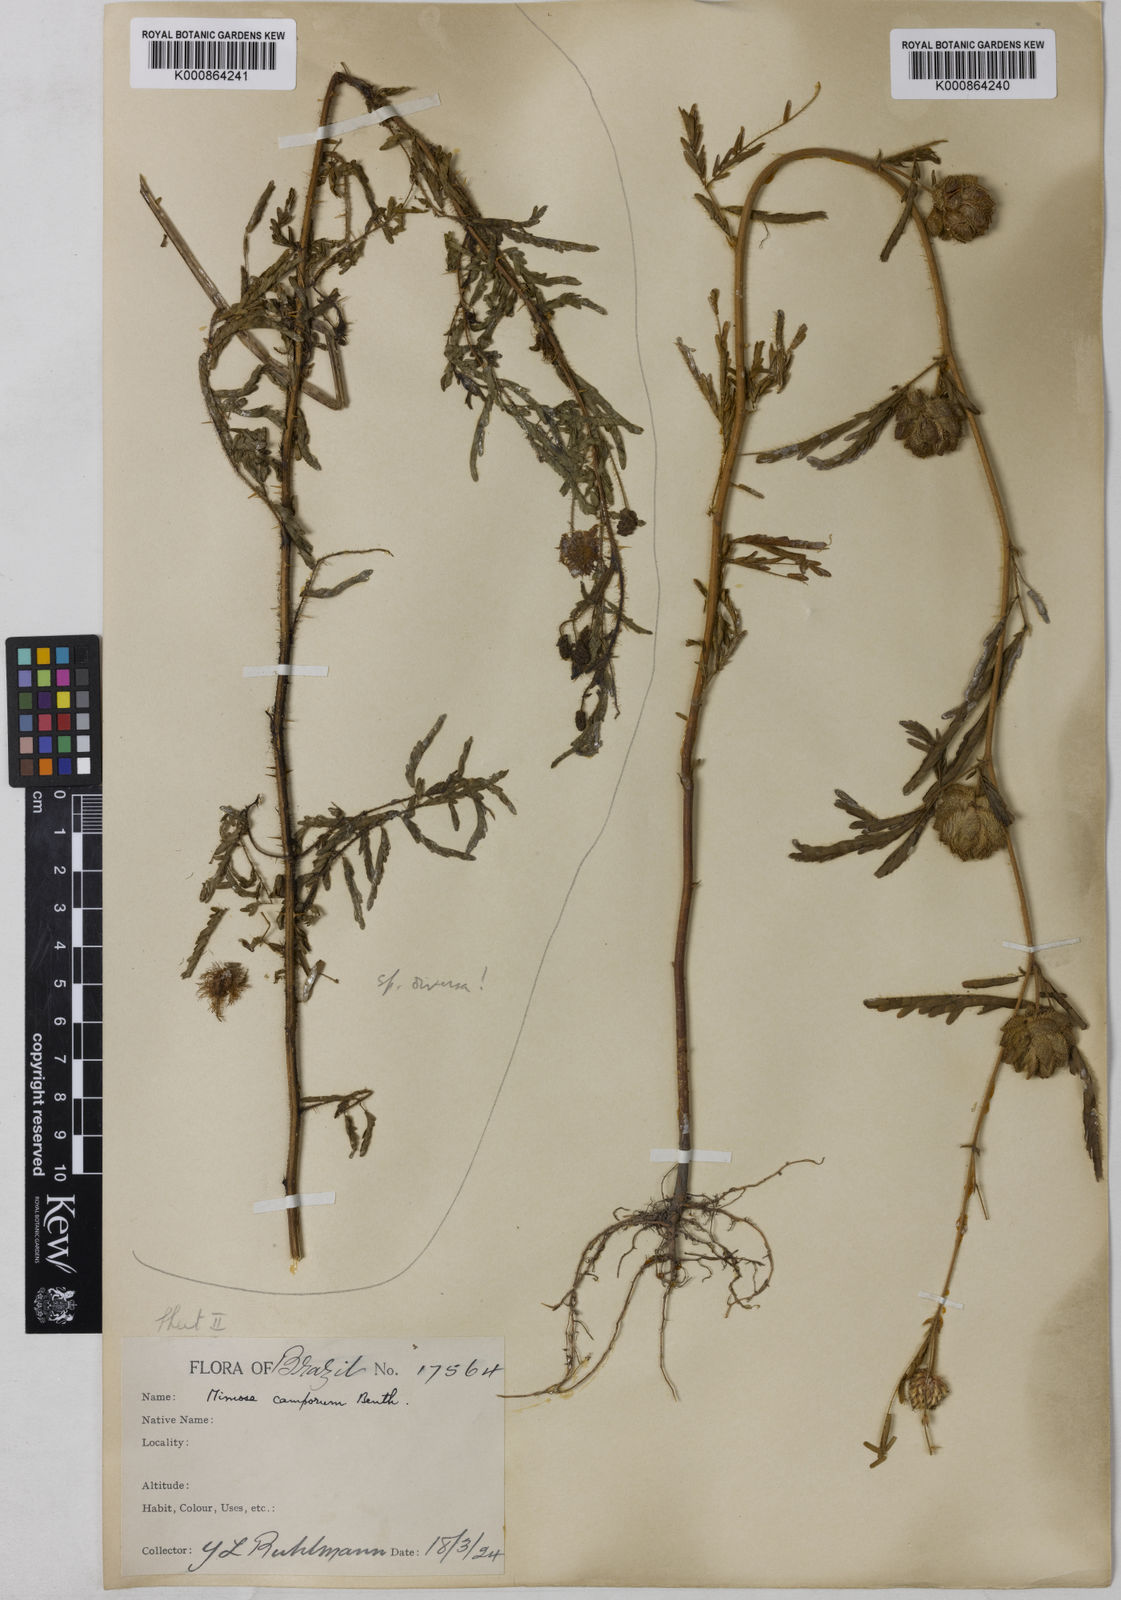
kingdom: Plantae
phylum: Tracheophyta
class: Magnoliopsida
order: Fabales
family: Fabaceae
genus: Mimosa
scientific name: Mimosa camporum
